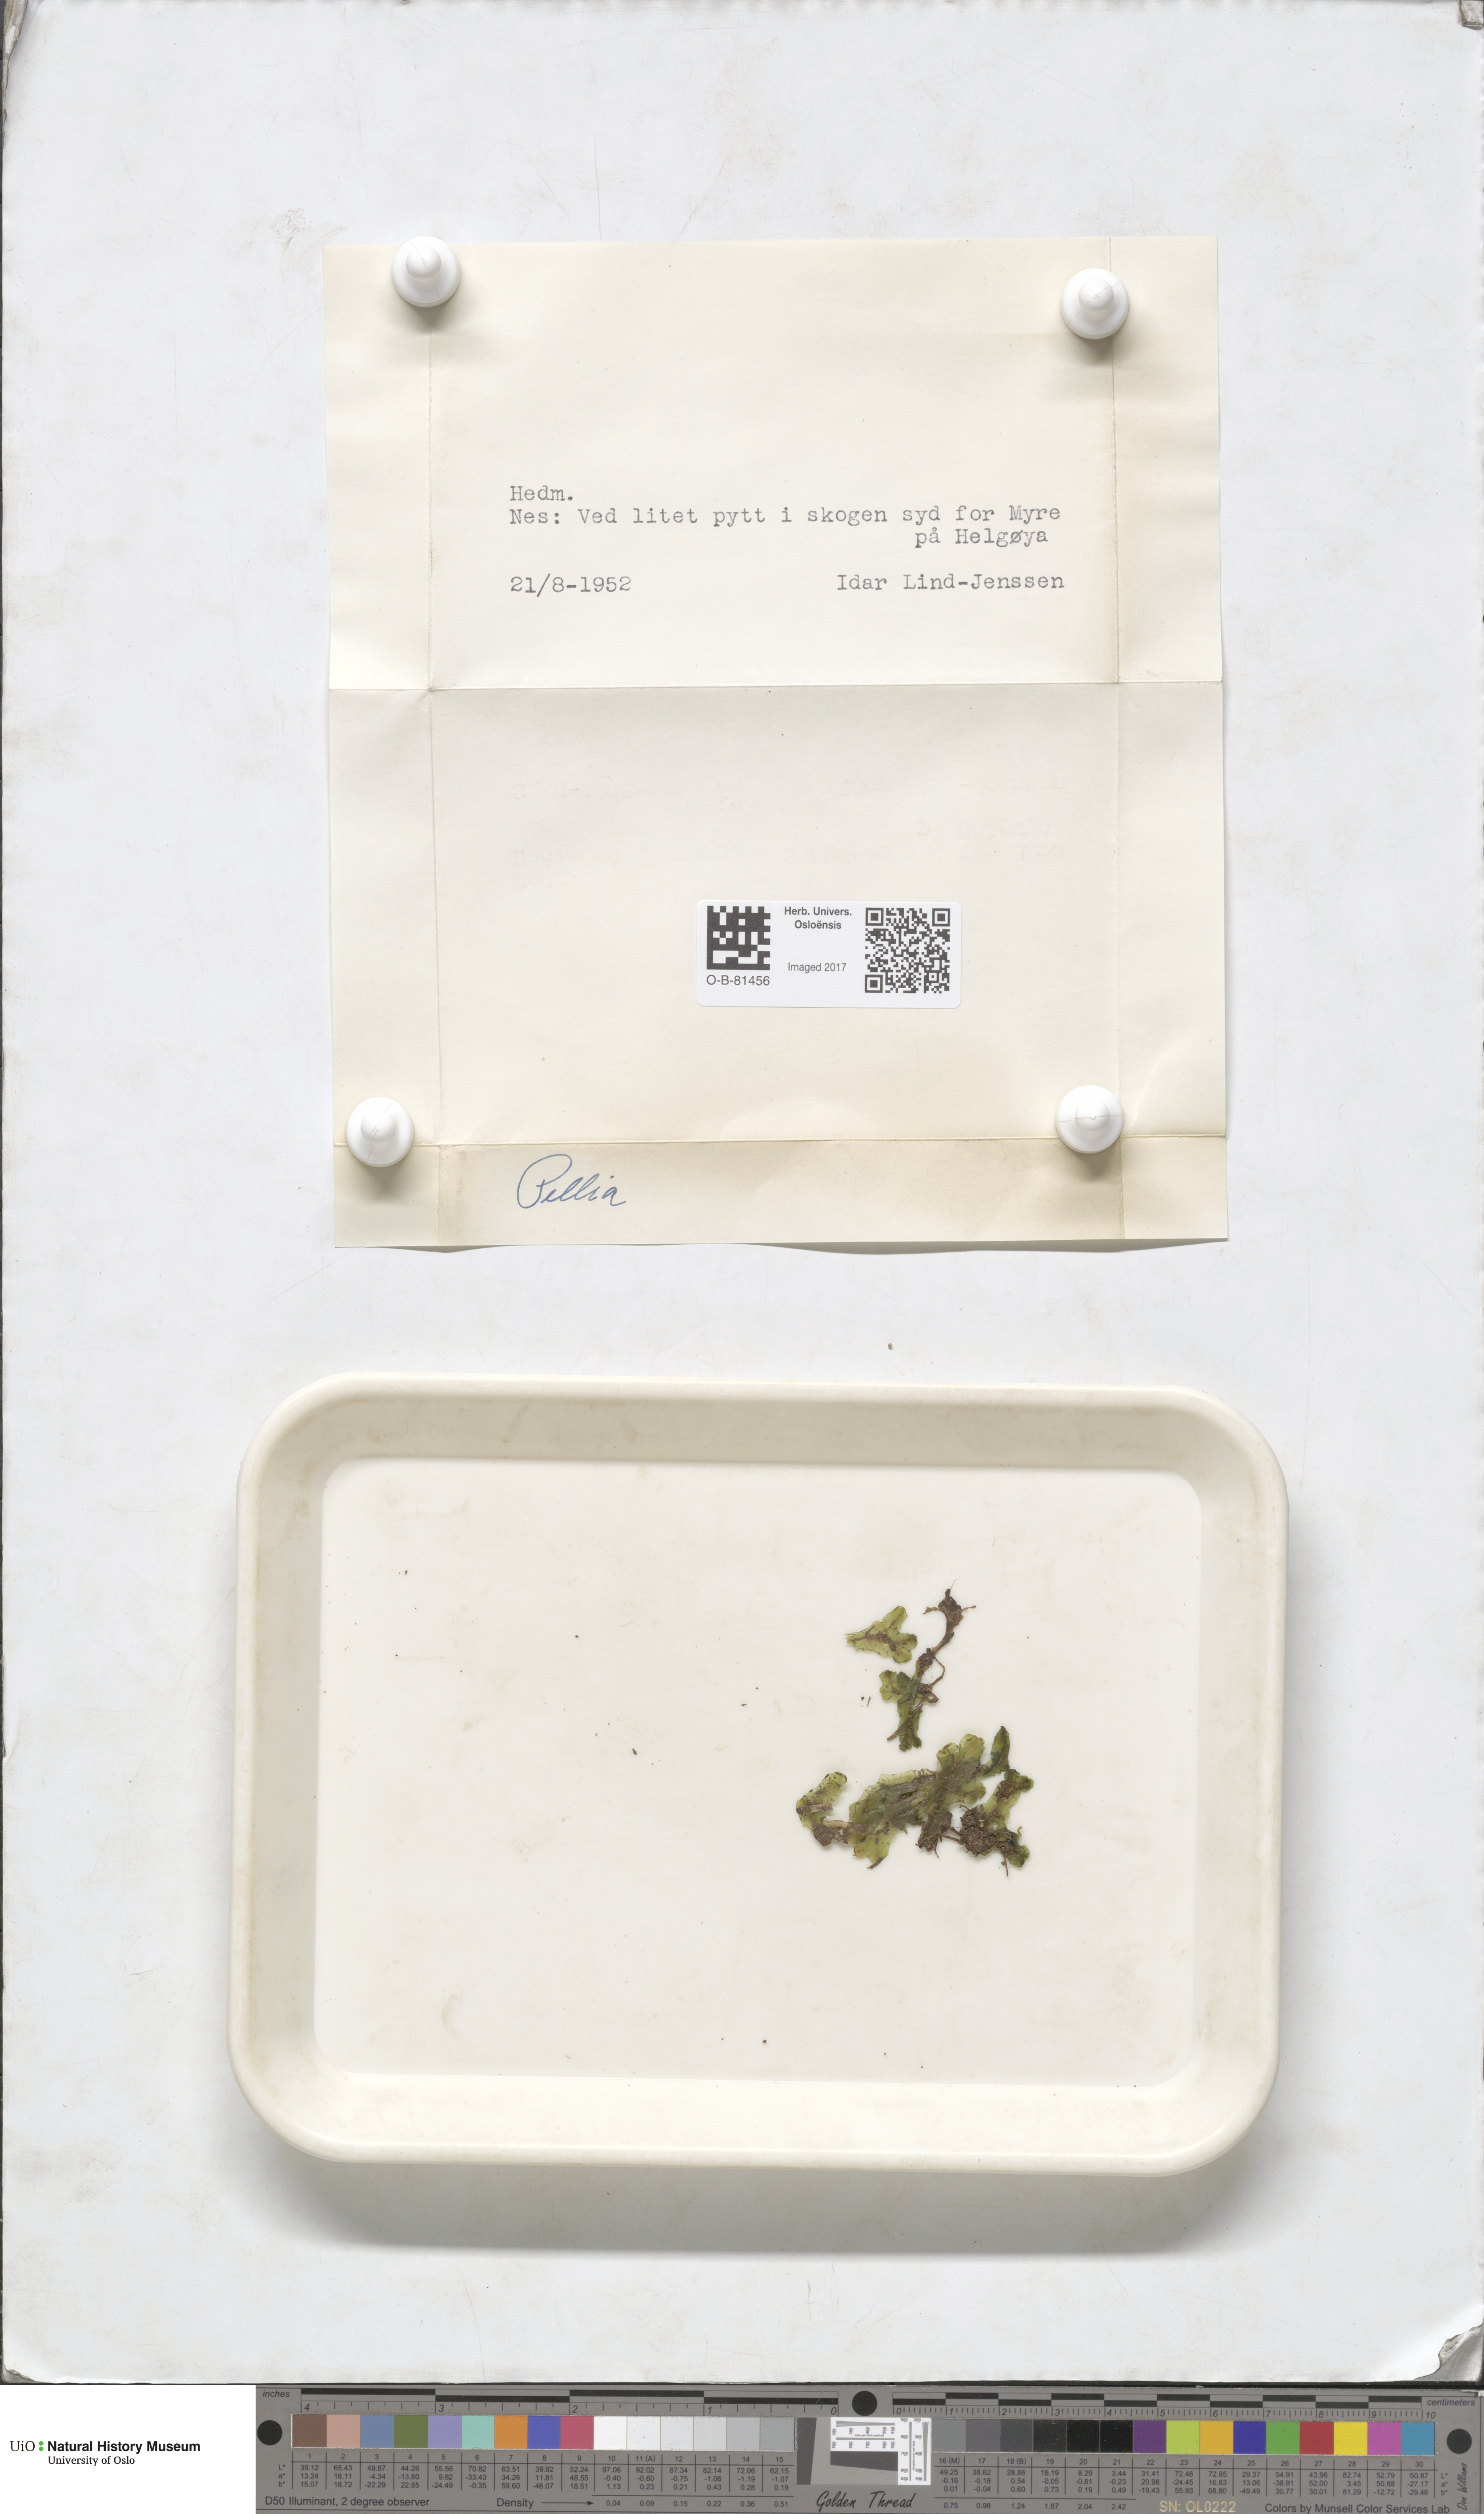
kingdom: Plantae
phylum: Marchantiophyta
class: Jungermanniopsida
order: Pelliales
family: Pelliaceae
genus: Pellia
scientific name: Pellia
